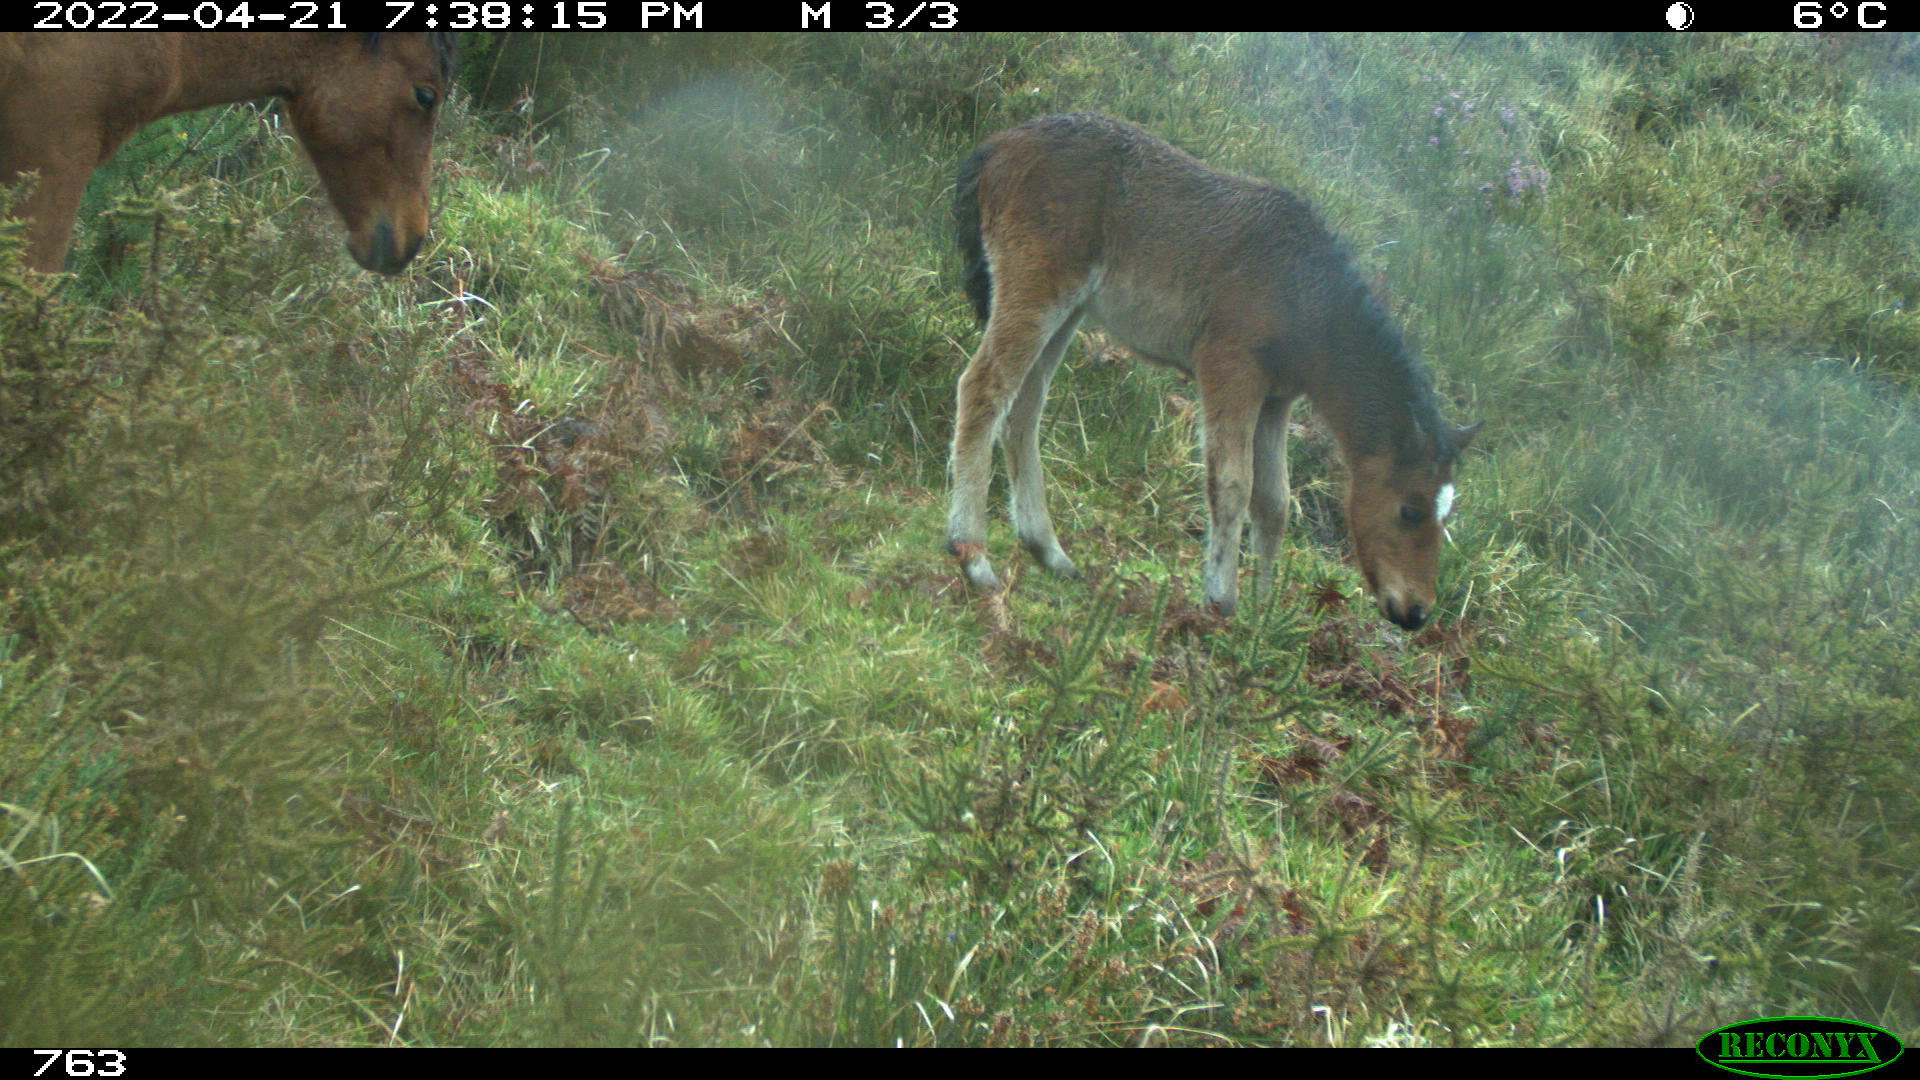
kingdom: Animalia
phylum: Chordata
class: Mammalia
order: Perissodactyla
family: Equidae
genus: Equus
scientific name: Equus caballus
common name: Horse
